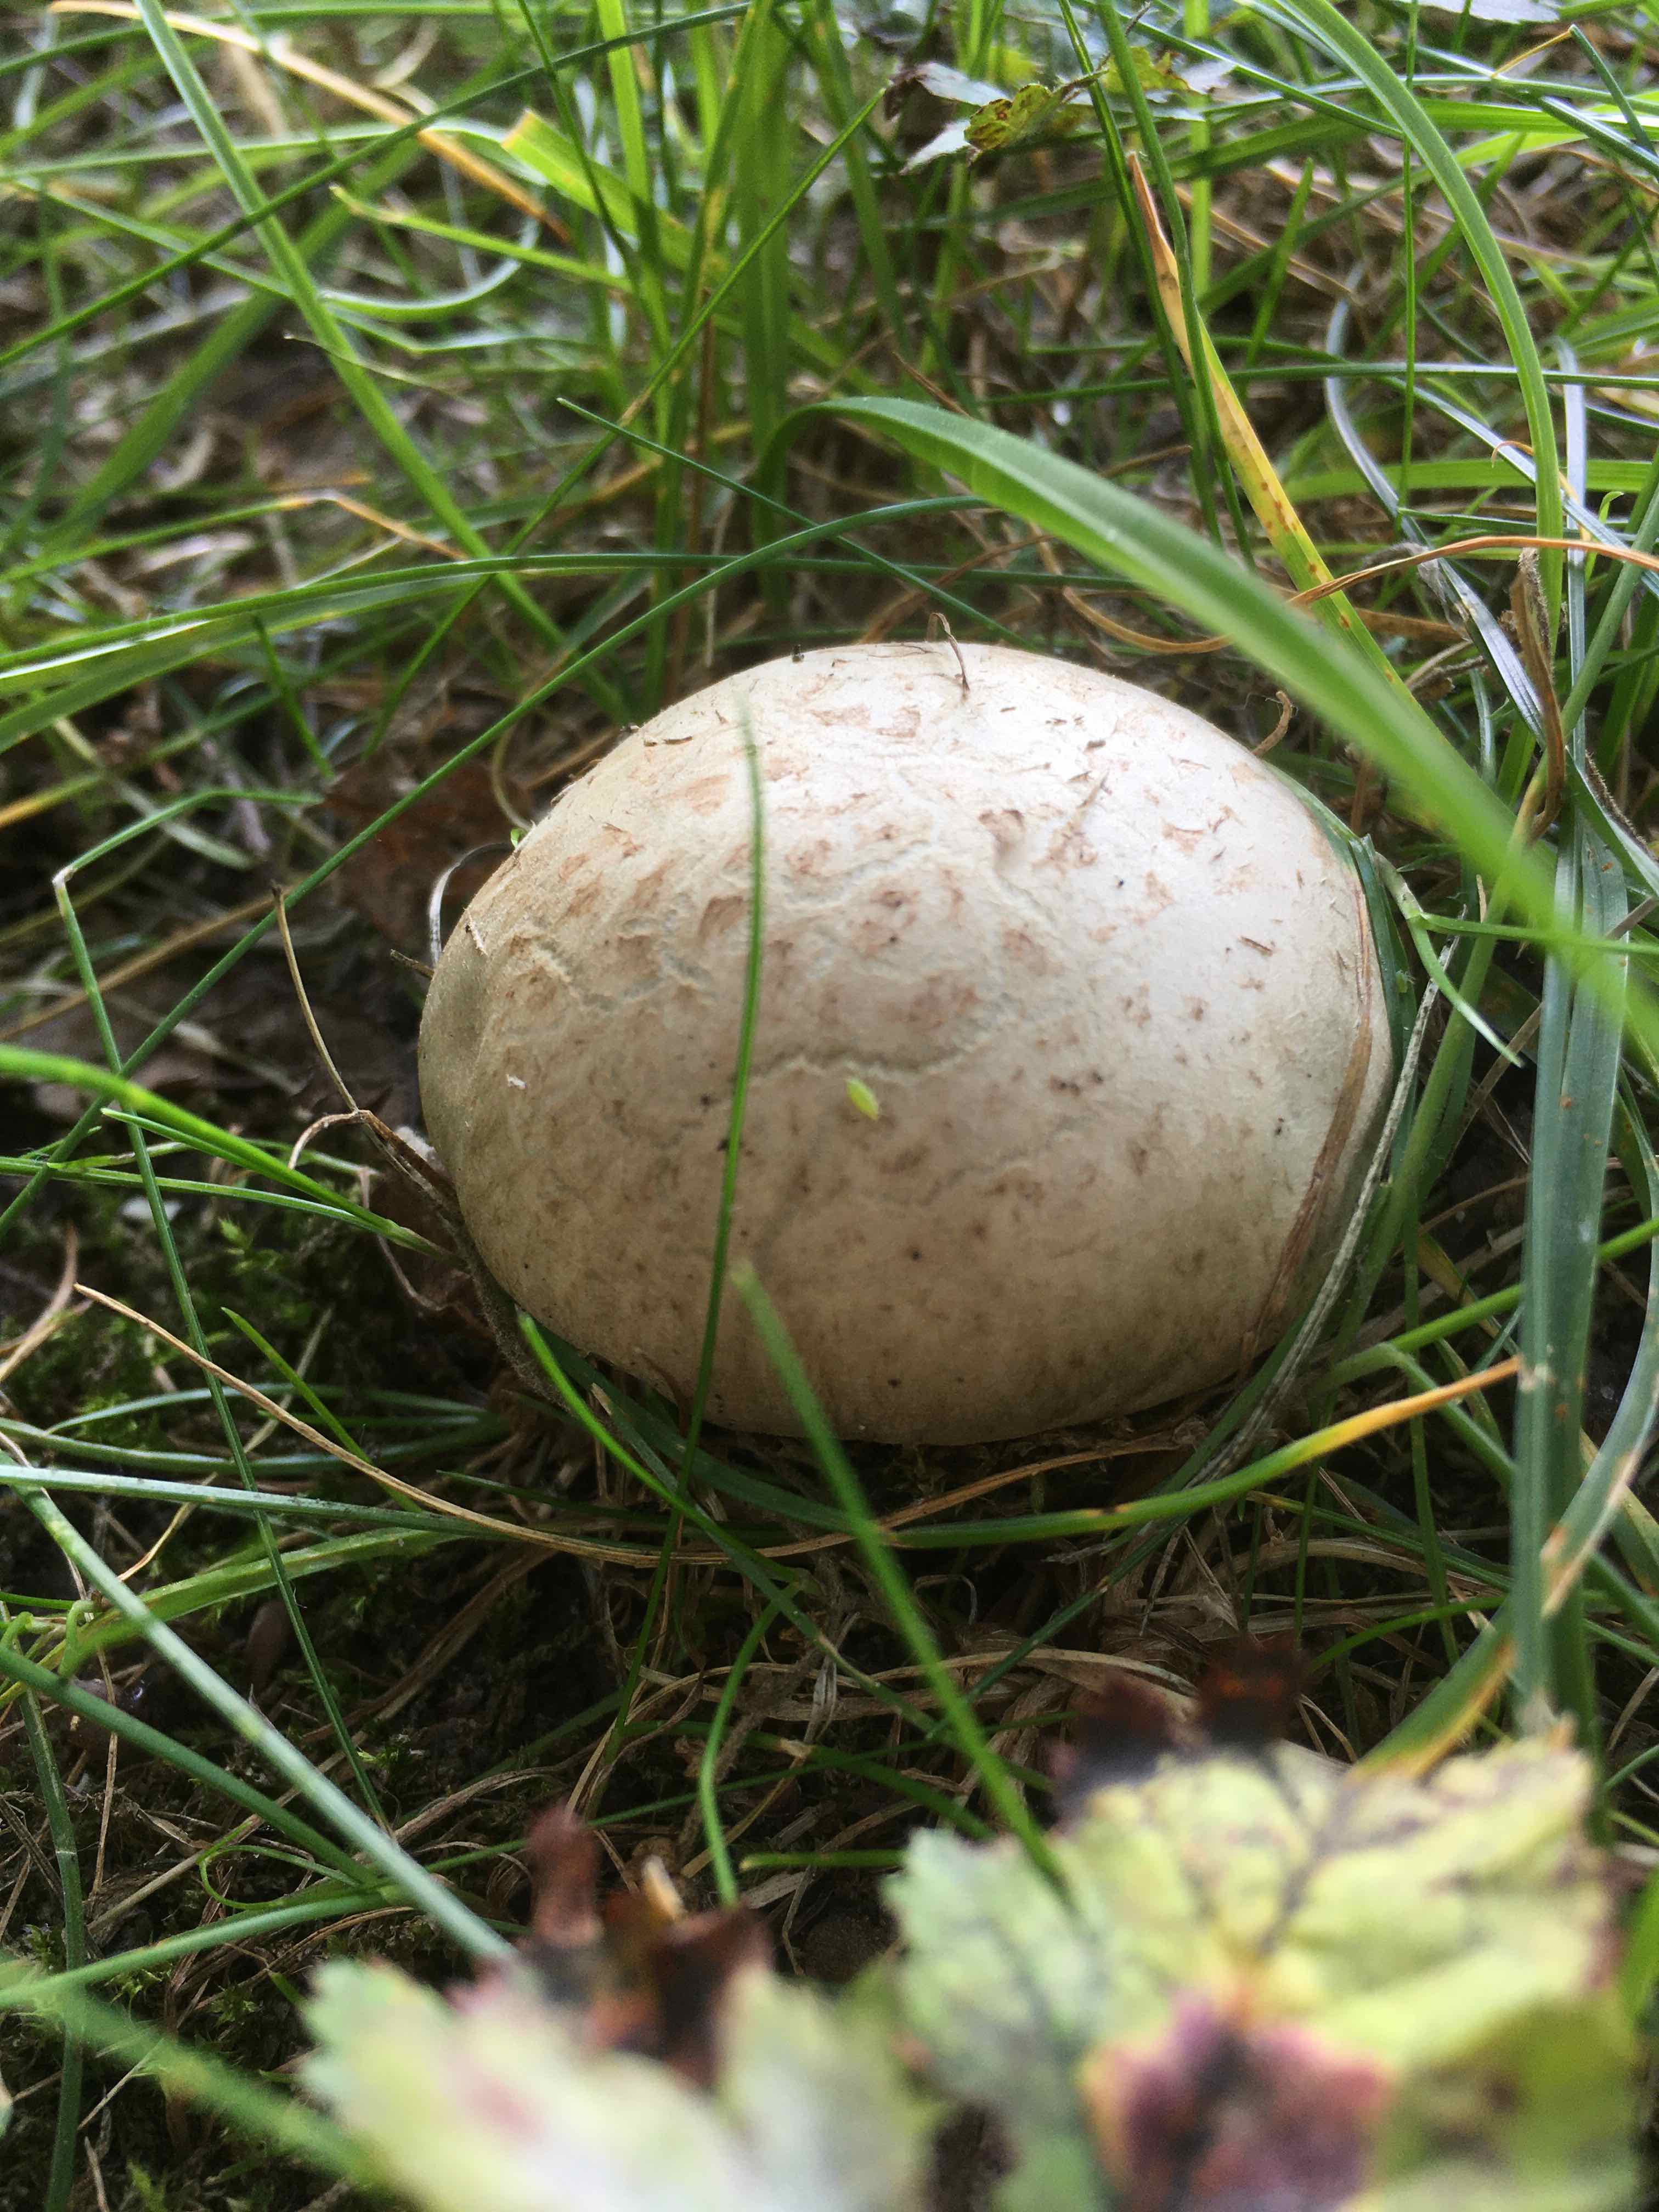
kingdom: Fungi
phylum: Basidiomycota
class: Agaricomycetes
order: Boletales
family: Boletaceae
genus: Caloboletus
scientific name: Caloboletus radicans
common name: rod-rørhat
